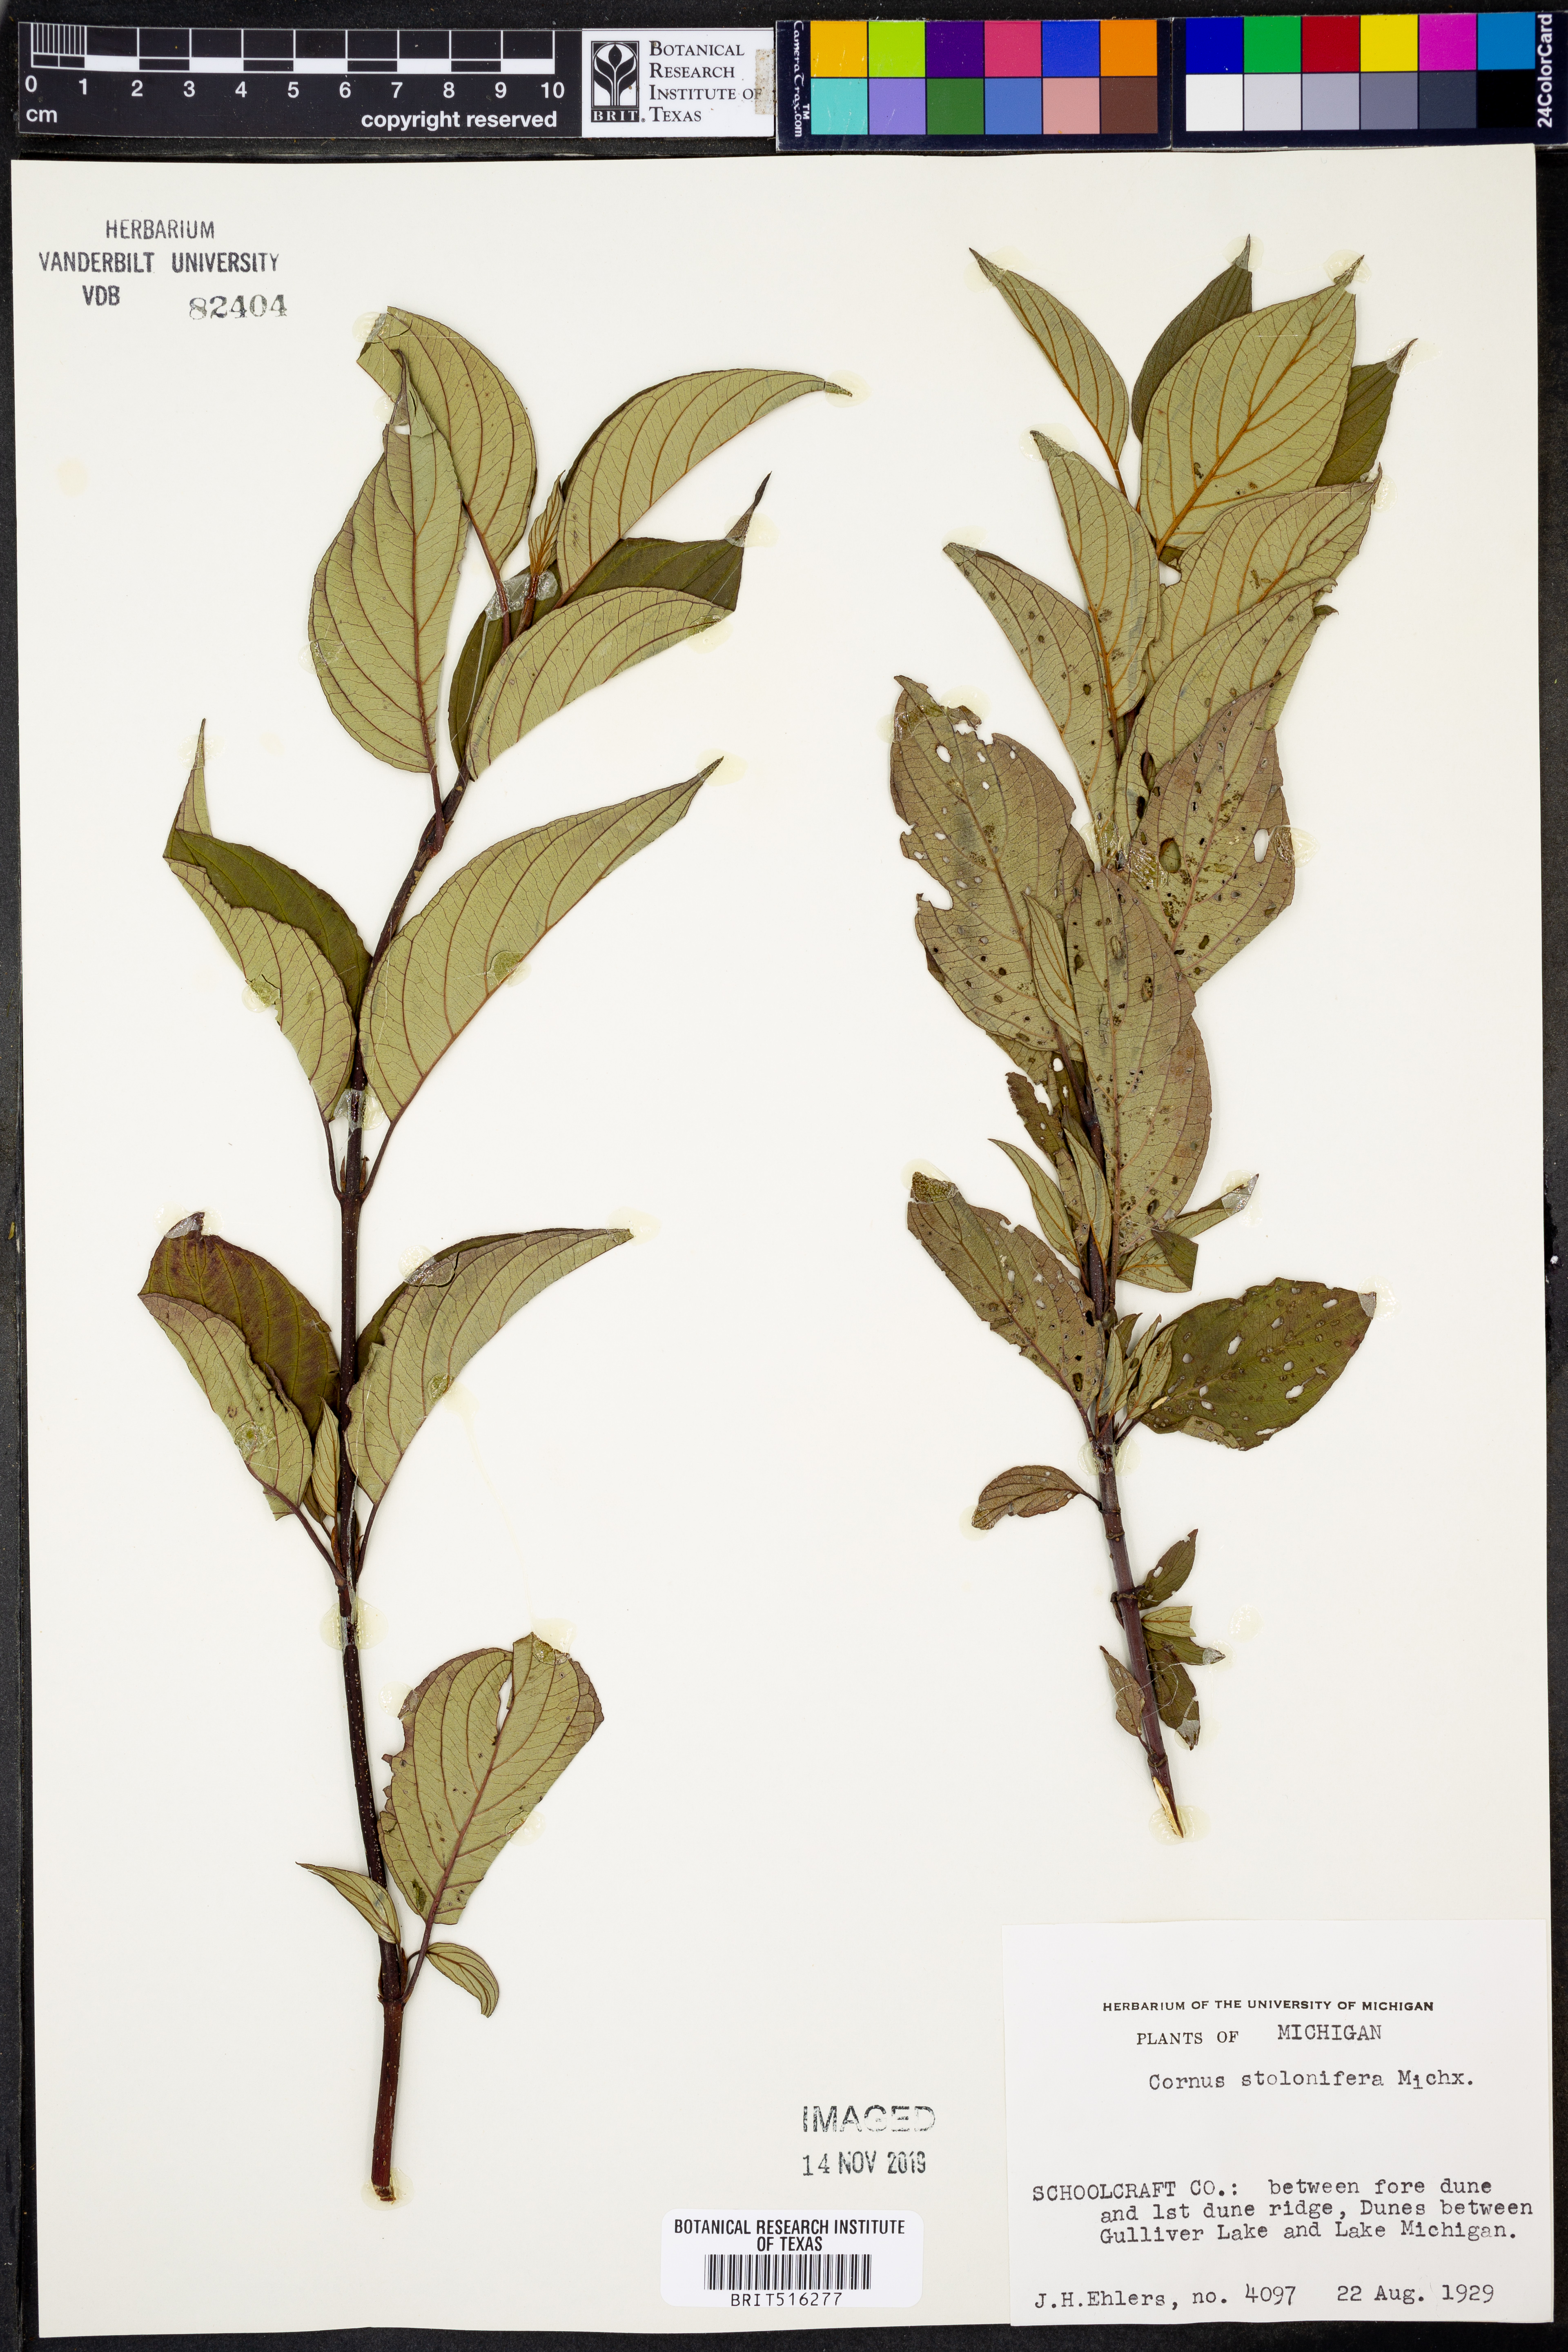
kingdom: Plantae
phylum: Tracheophyta
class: Magnoliopsida
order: Cornales
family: Cornaceae
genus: Cornus
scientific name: Cornus sericea
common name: Red-osier dogwood
